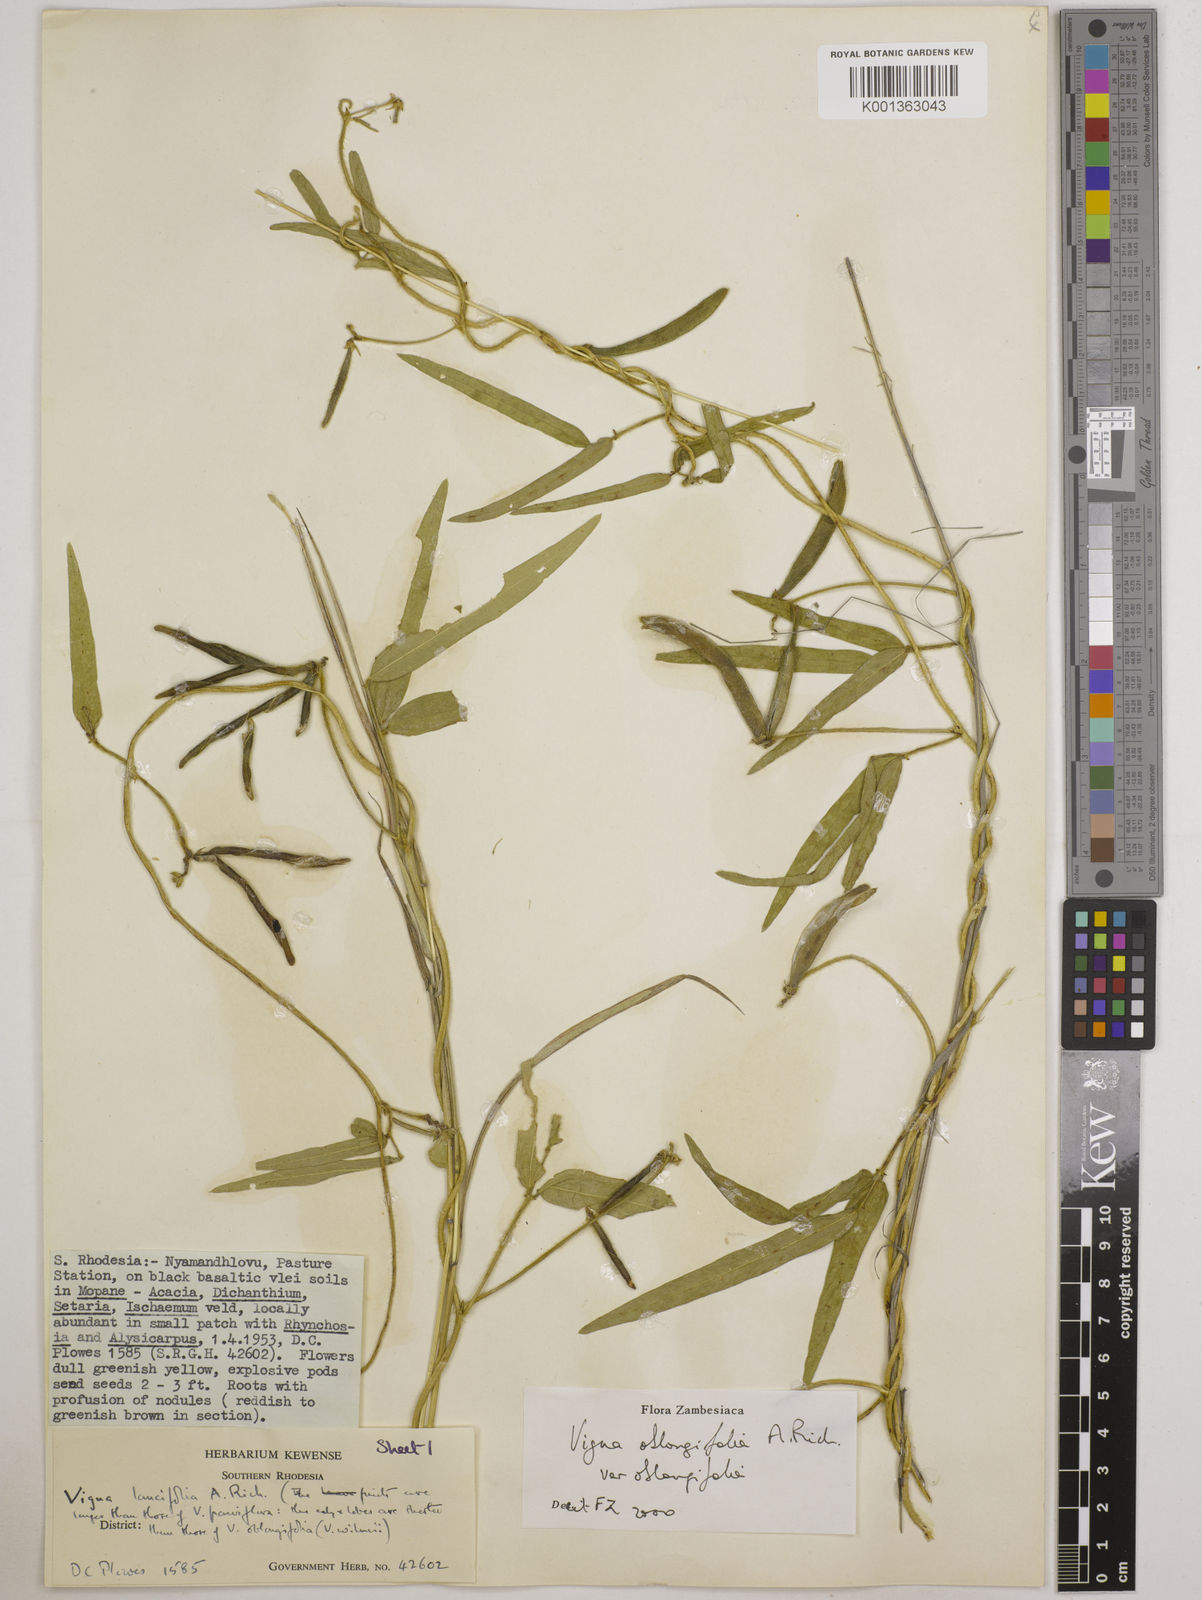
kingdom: Plantae
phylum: Tracheophyta
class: Magnoliopsida
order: Fabales
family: Fabaceae
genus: Vigna
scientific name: Vigna oblongifolia
